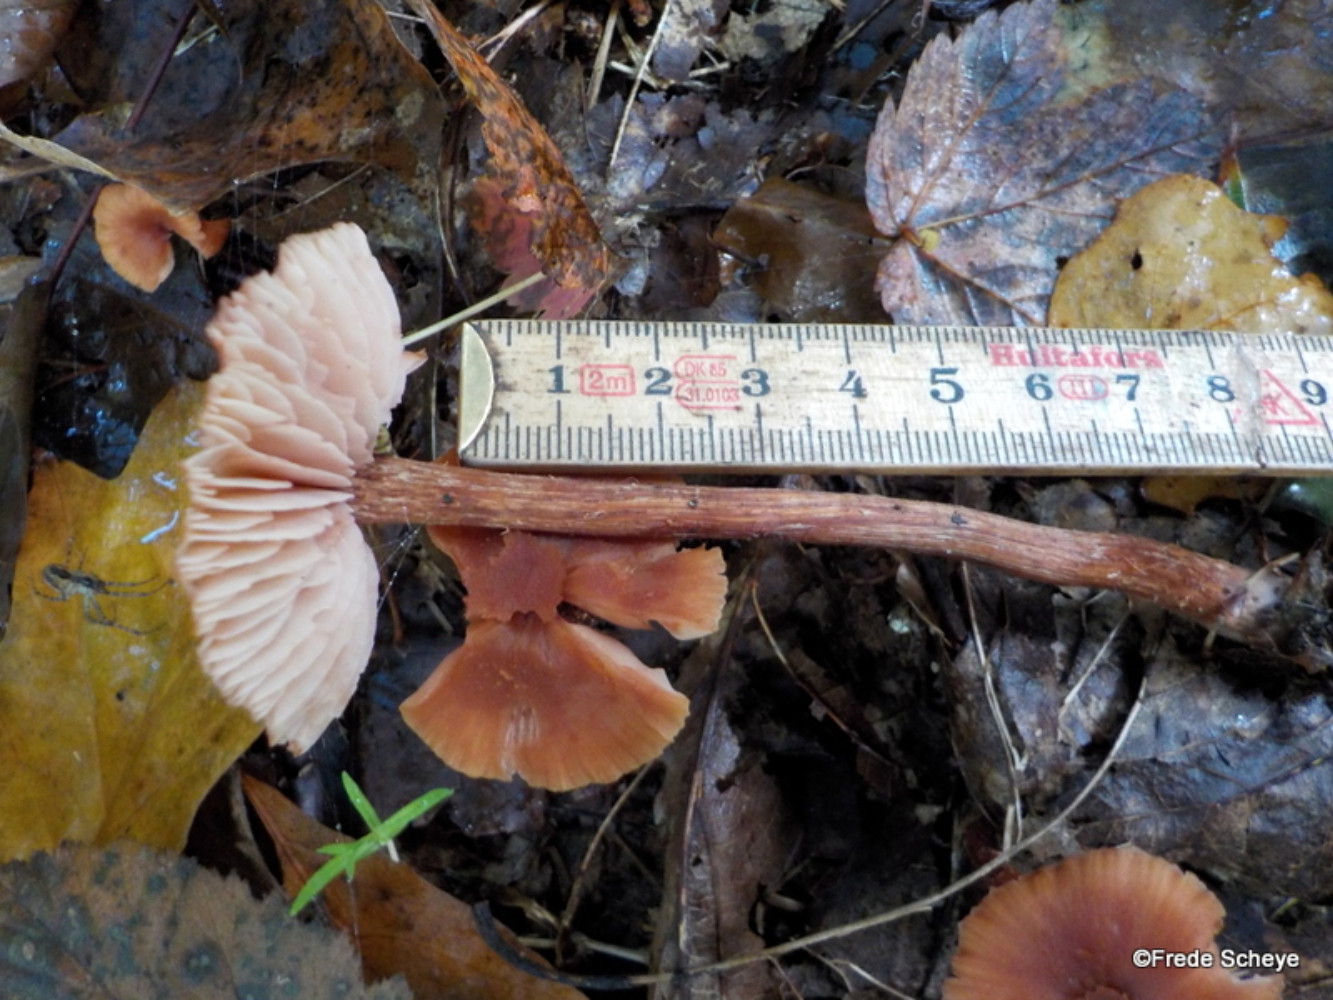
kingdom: Fungi
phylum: Basidiomycota
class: Agaricomycetes
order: Agaricales
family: Hydnangiaceae
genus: Laccaria
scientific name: Laccaria proxima
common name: stor ametysthat
